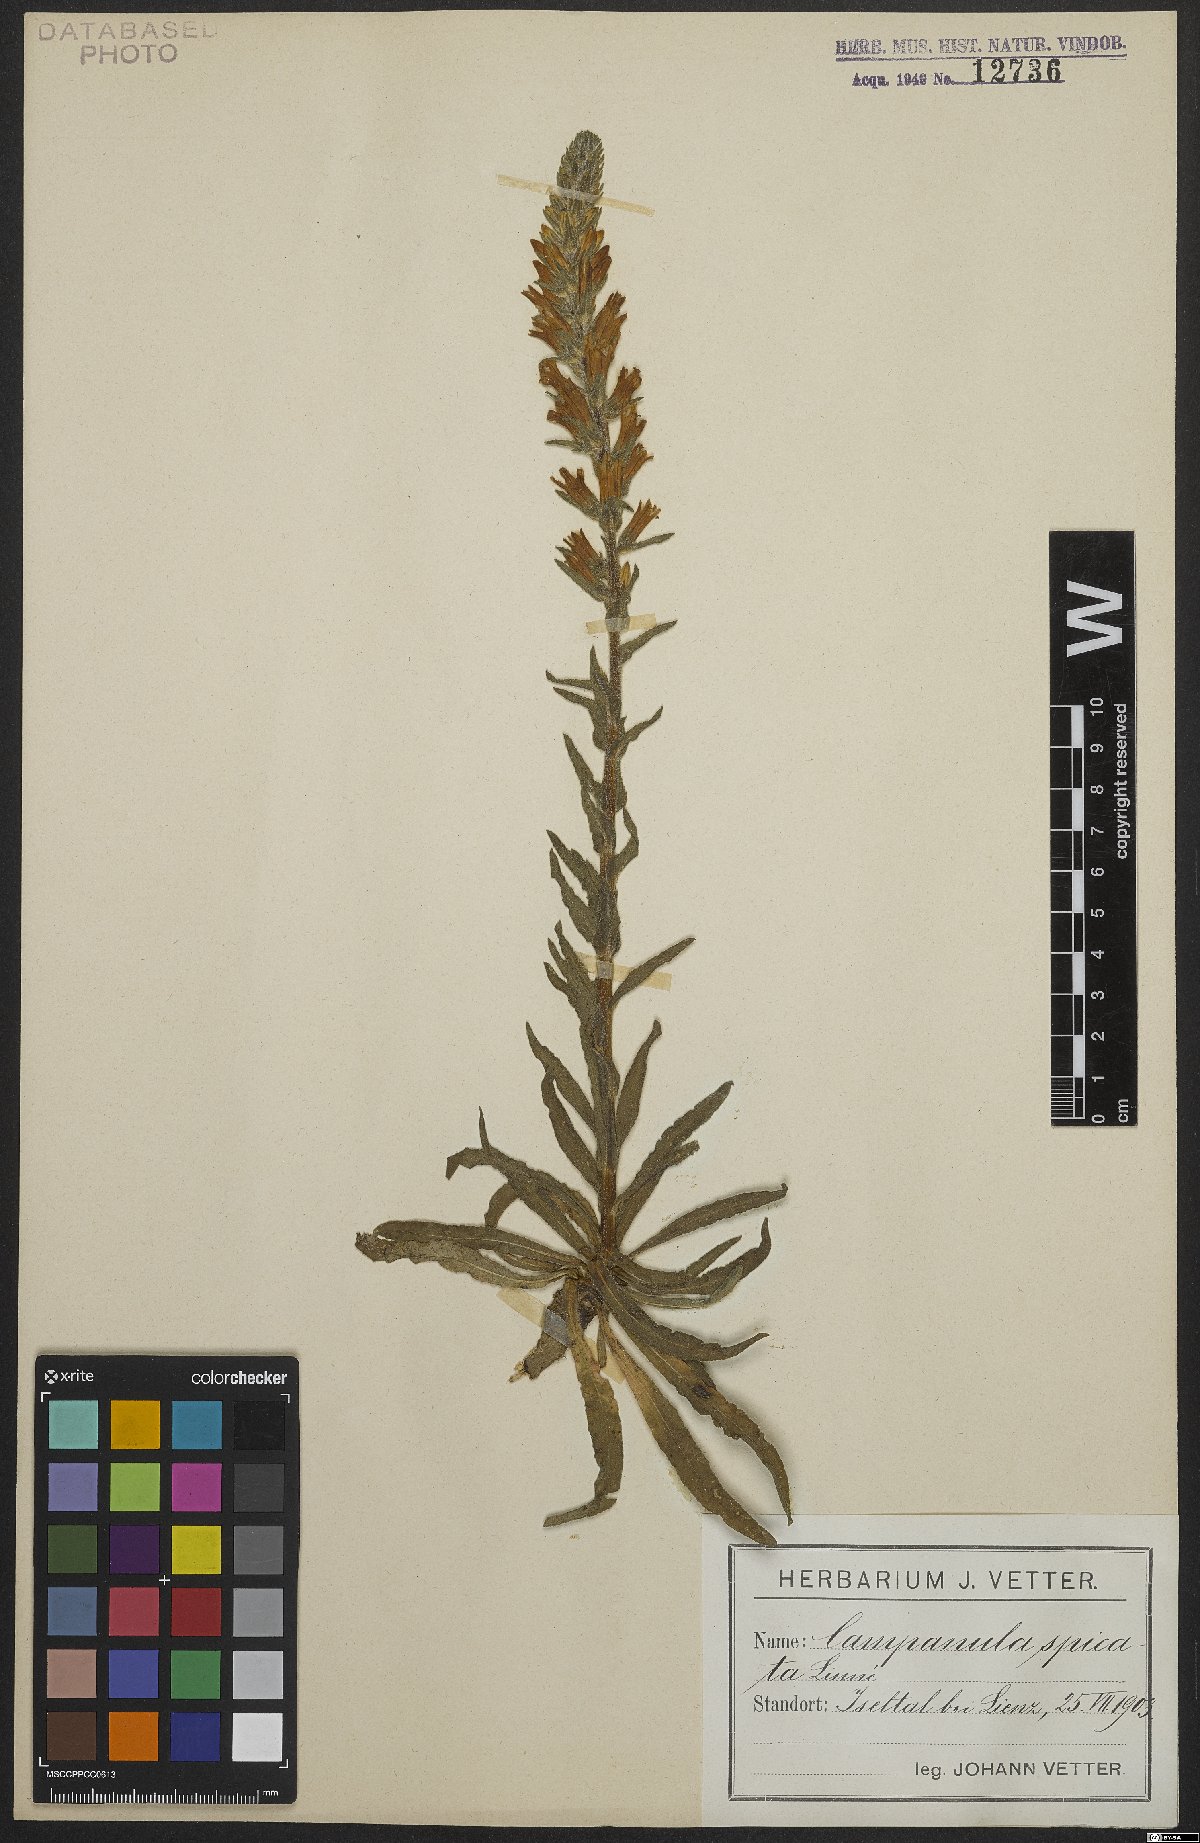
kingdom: Plantae
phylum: Tracheophyta
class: Magnoliopsida
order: Asterales
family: Campanulaceae
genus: Campanula
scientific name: Campanula spicata
